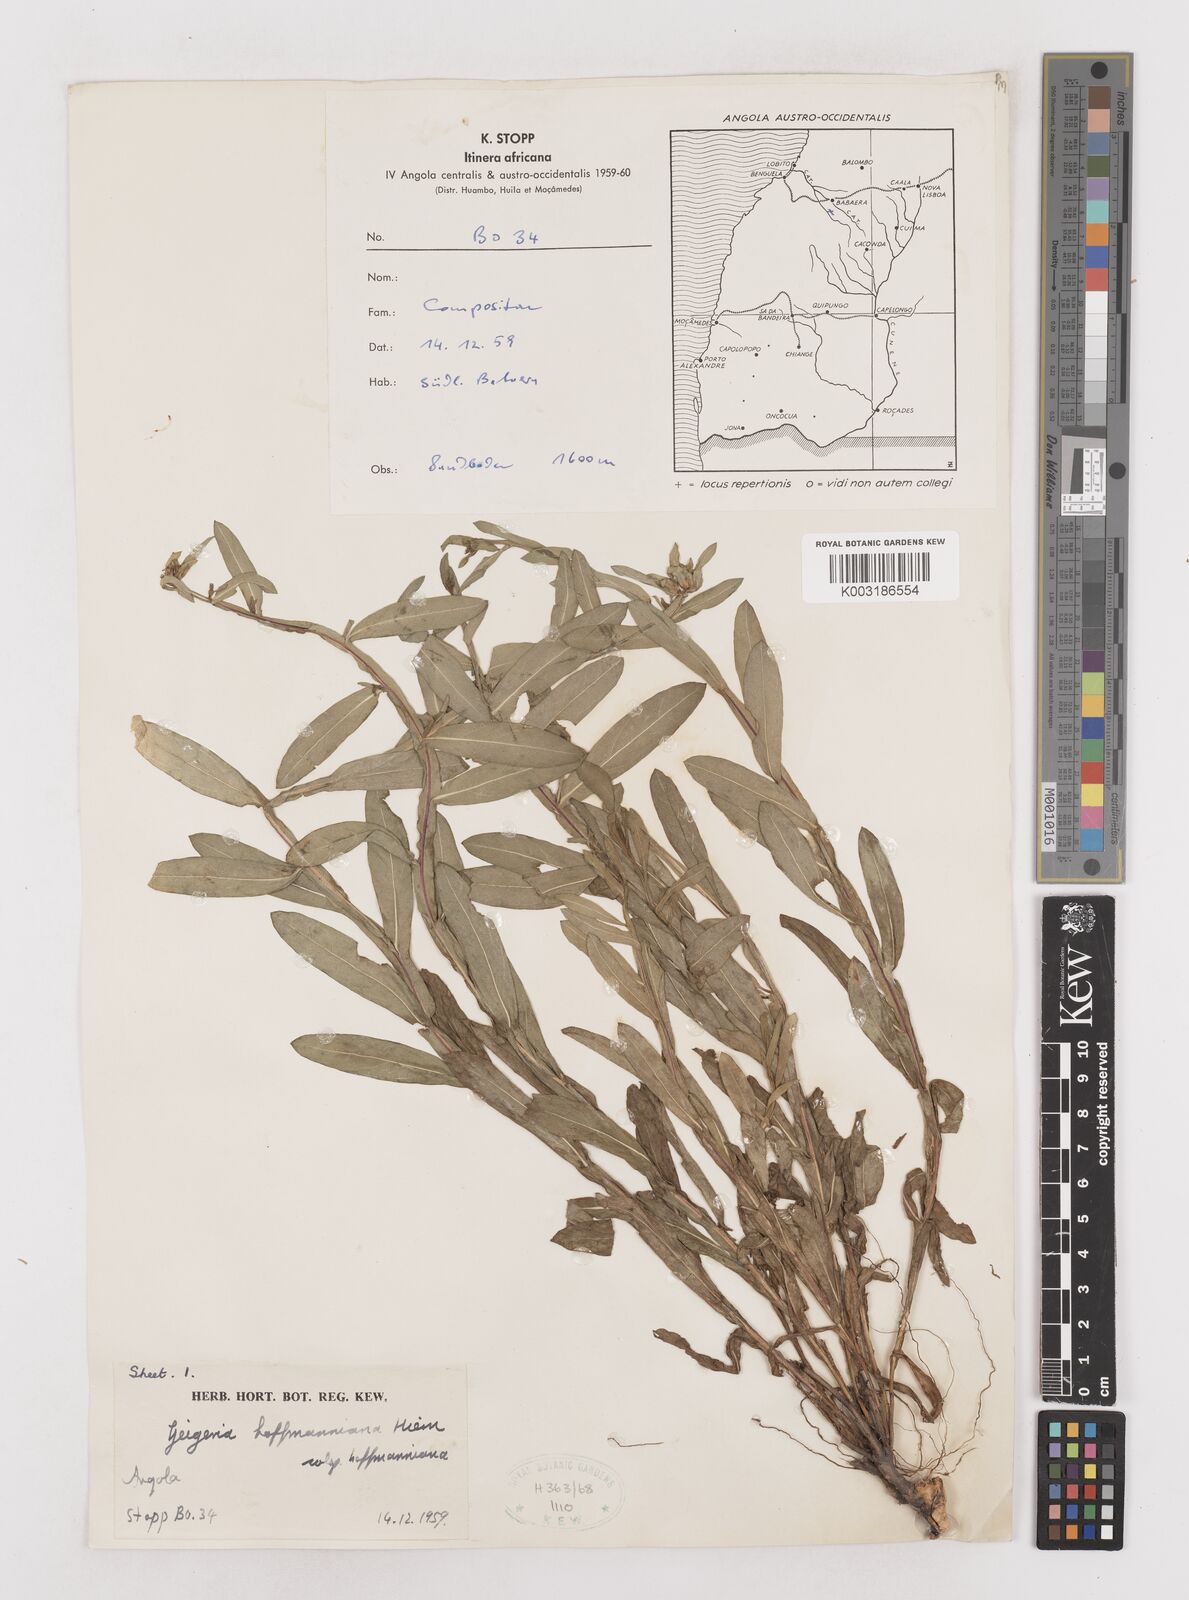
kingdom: Plantae
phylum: Tracheophyta
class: Magnoliopsida
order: Asterales
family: Asteraceae
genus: Geigeria
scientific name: Geigeria hoffmanniana
